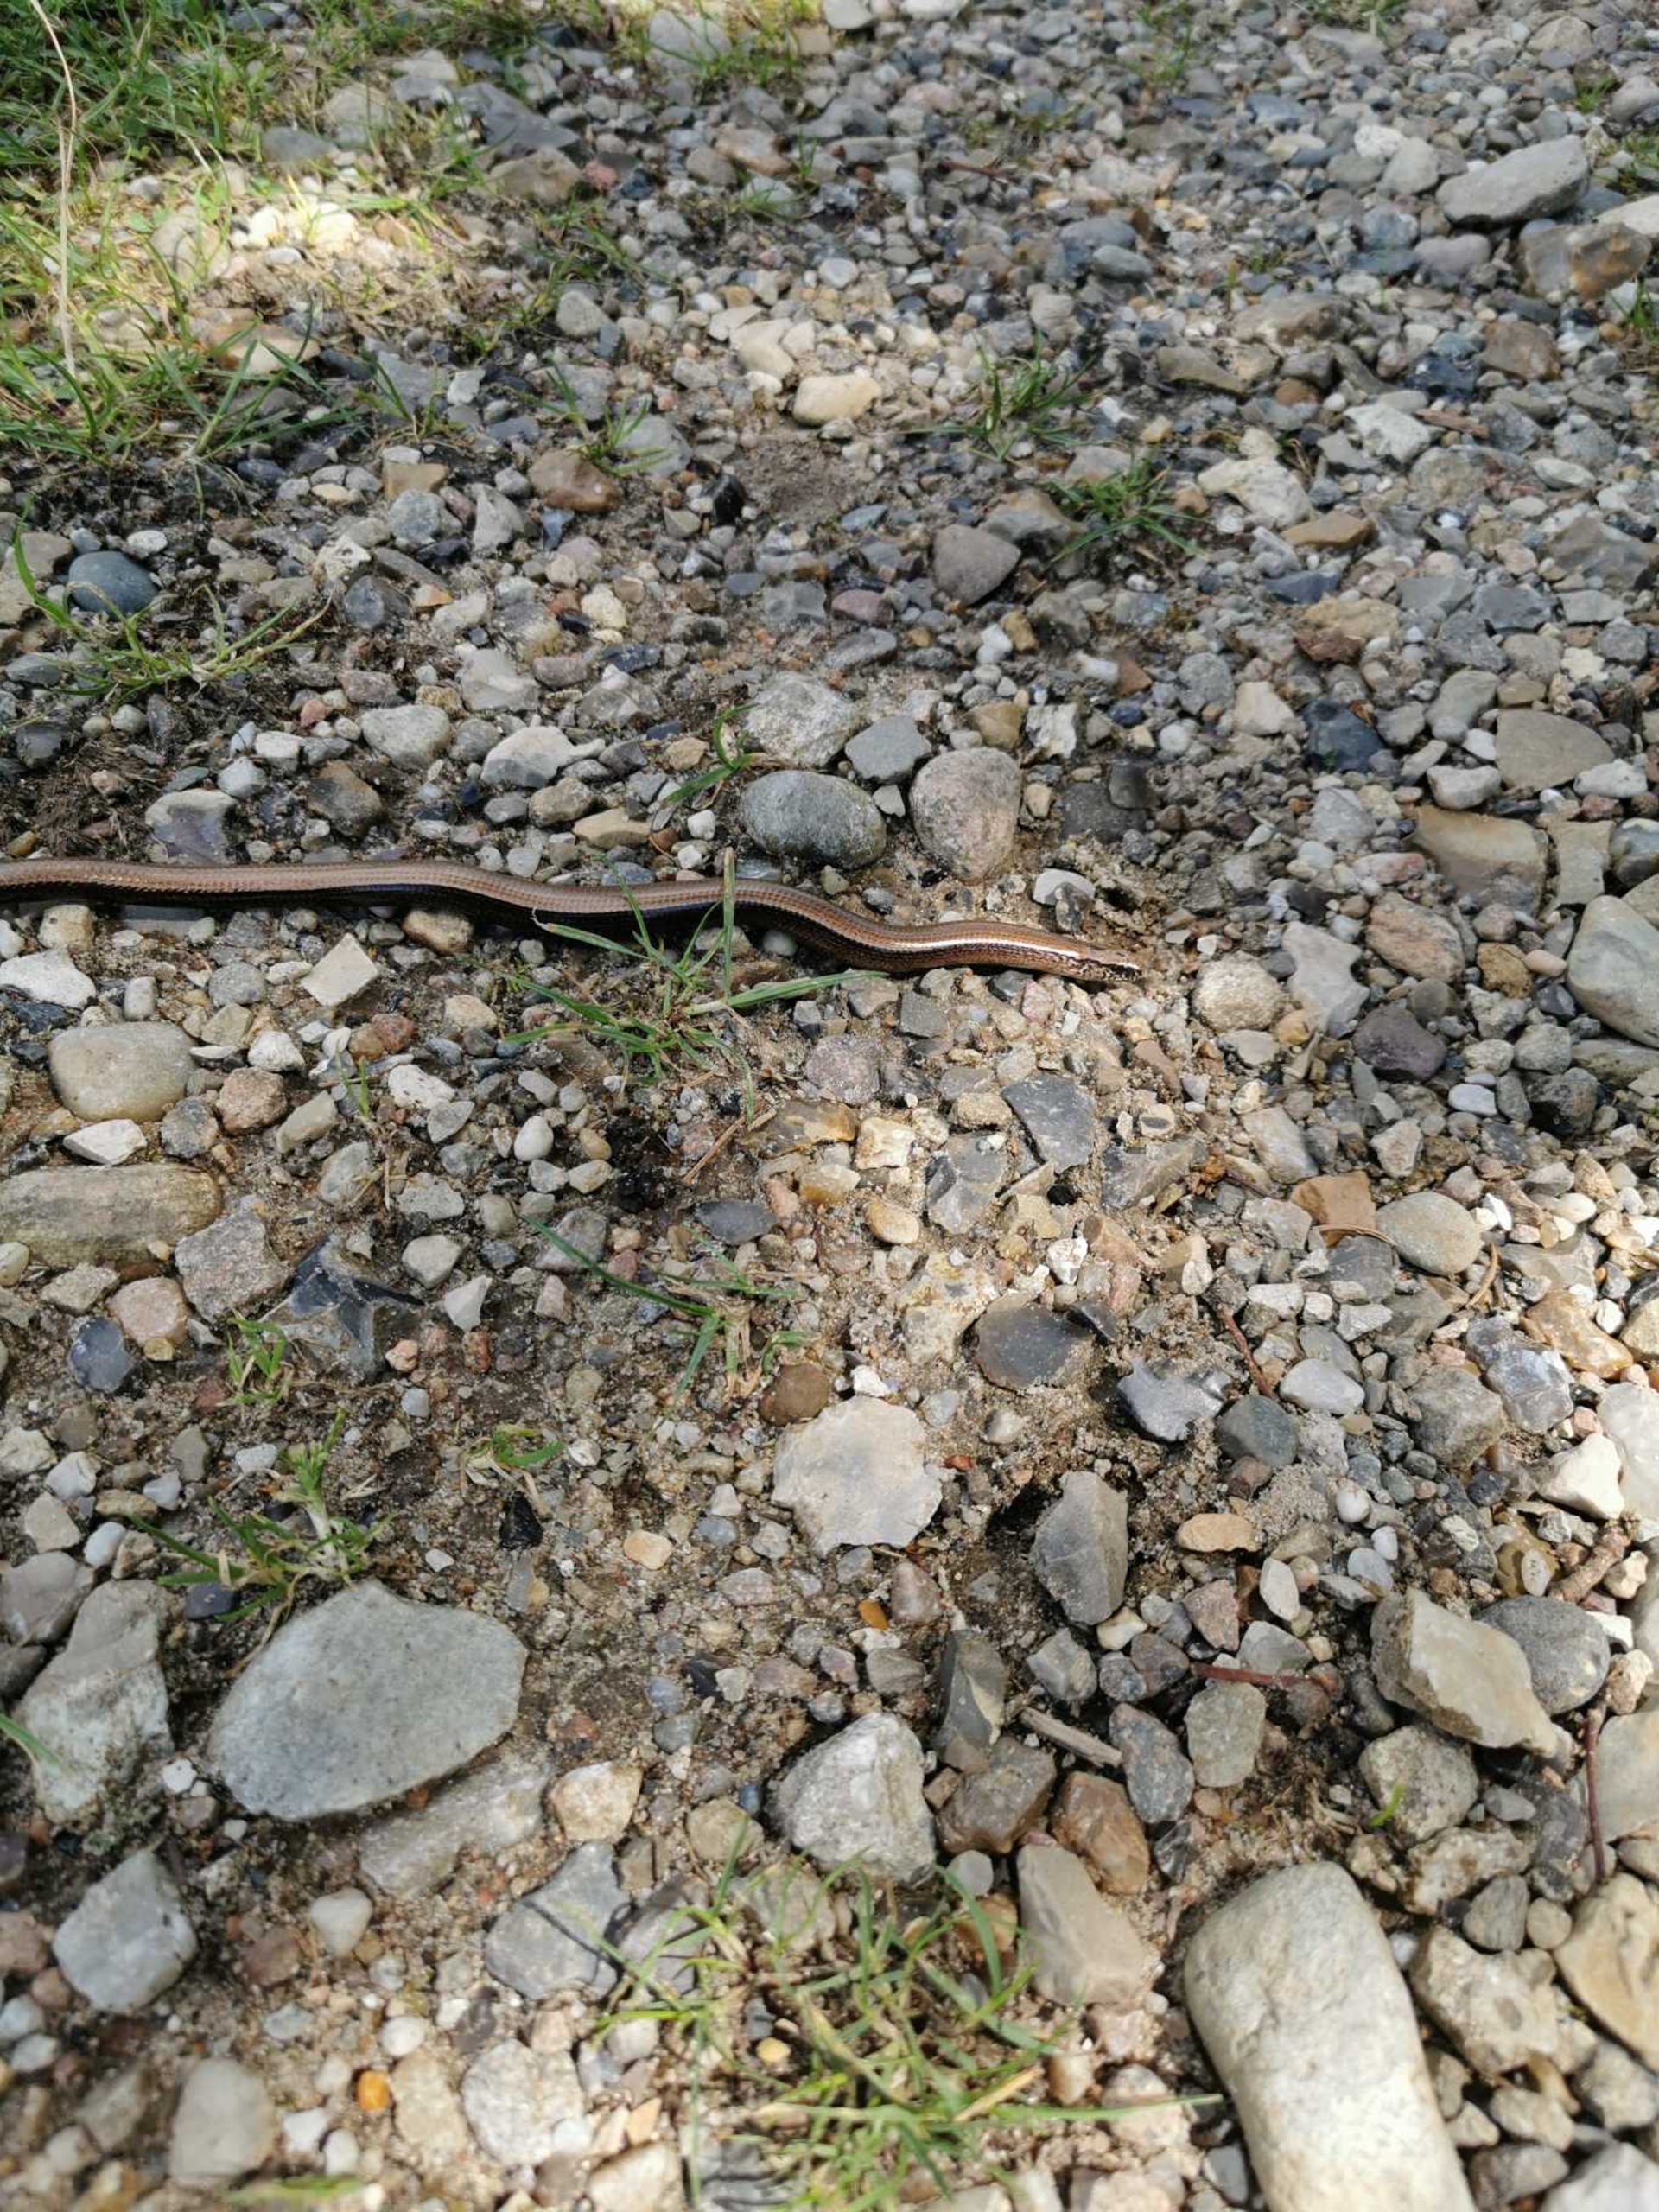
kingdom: Animalia
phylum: Chordata
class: Squamata
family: Anguidae
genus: Anguis
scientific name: Anguis fragilis
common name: Stålorm
